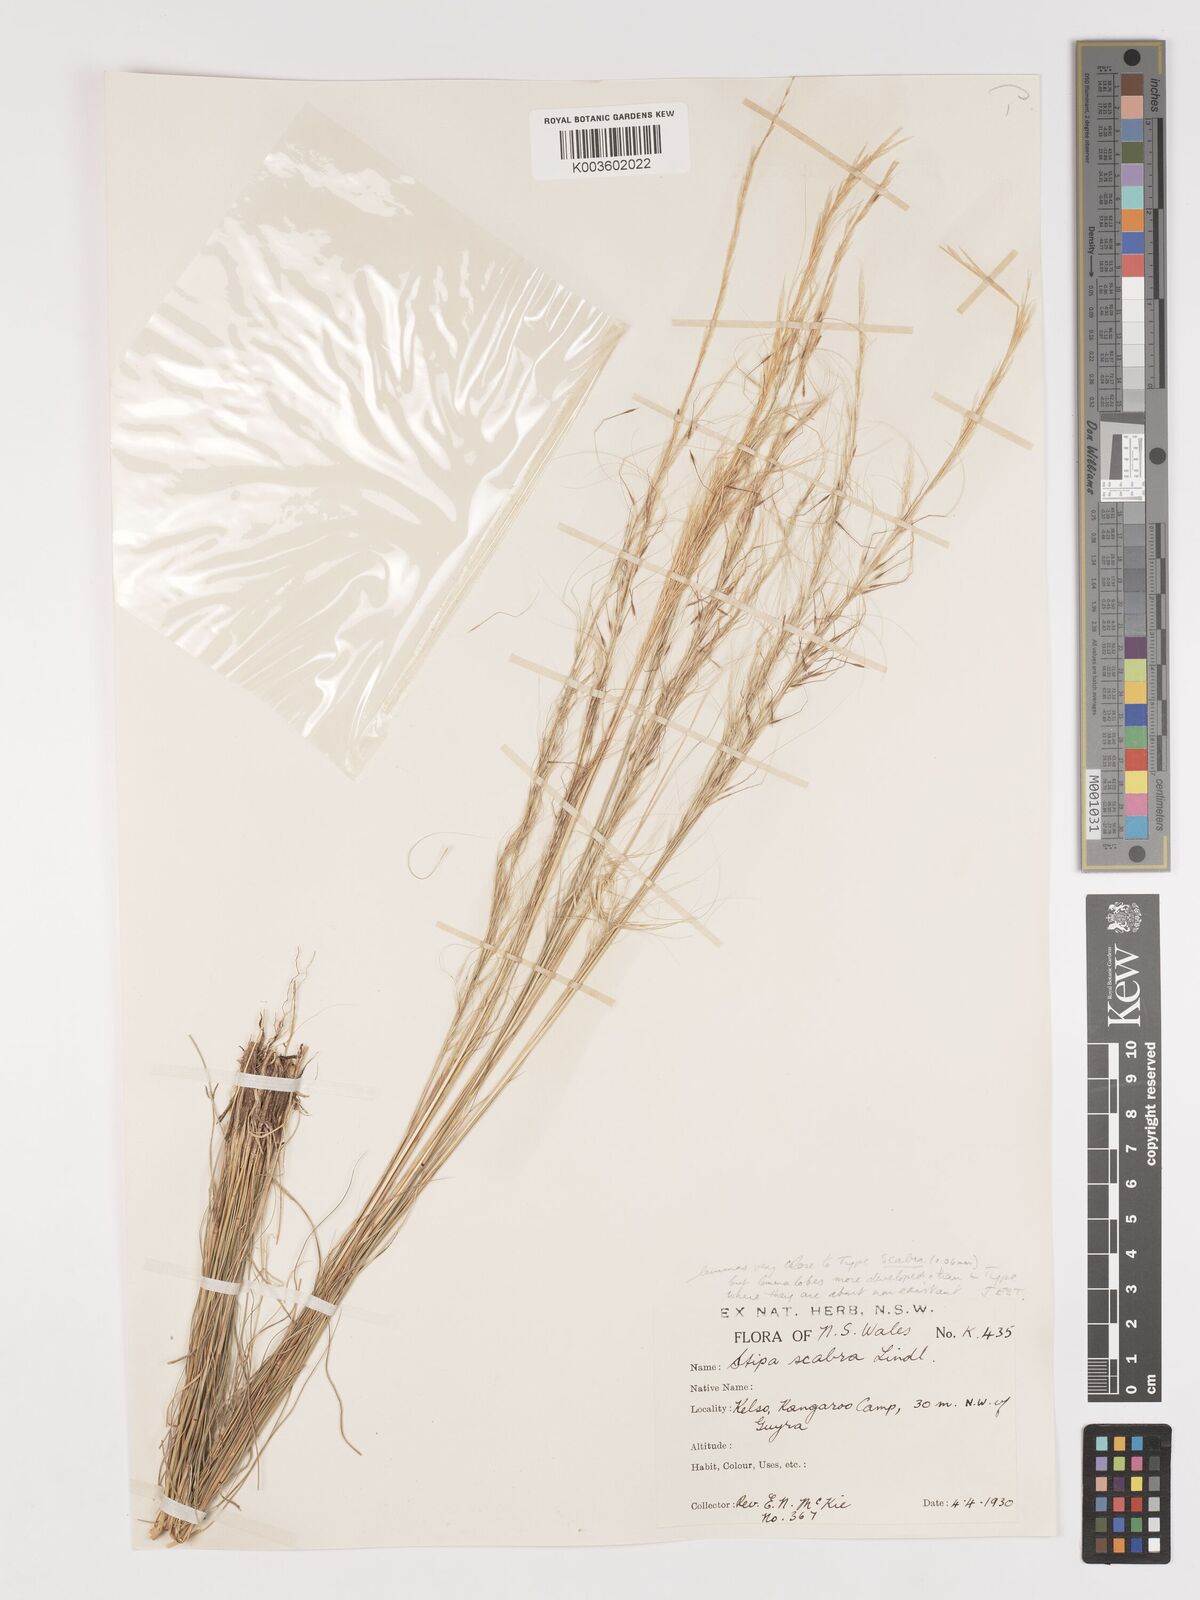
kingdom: Plantae
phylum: Tracheophyta
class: Liliopsida
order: Poales
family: Poaceae
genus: Austrostipa
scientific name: Austrostipa scabra
